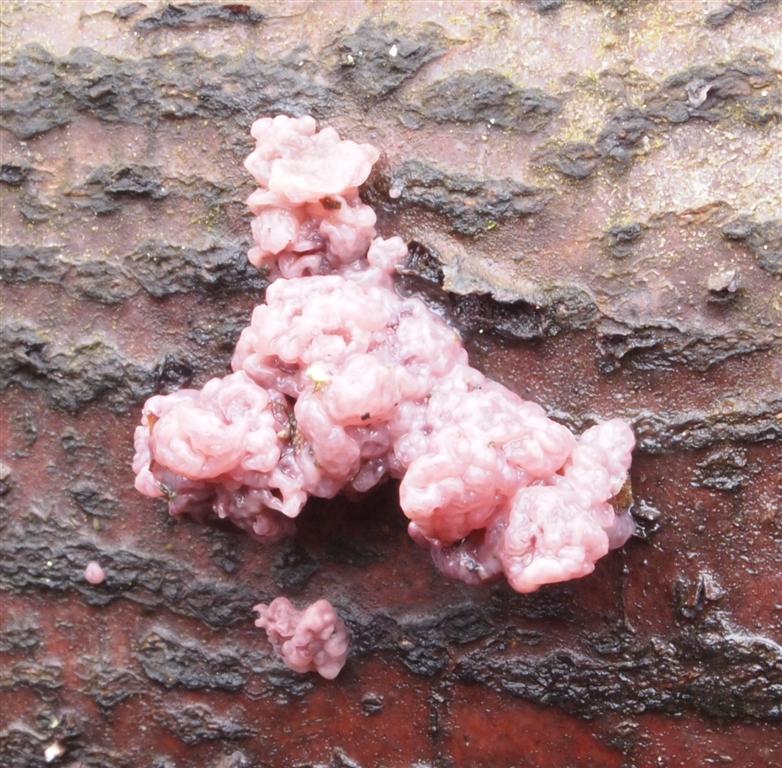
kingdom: Fungi
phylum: Ascomycota
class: Leotiomycetes
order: Helotiales
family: Gelatinodiscaceae
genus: Ascocoryne
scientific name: Ascocoryne sarcoides
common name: rødlilla sejskive
